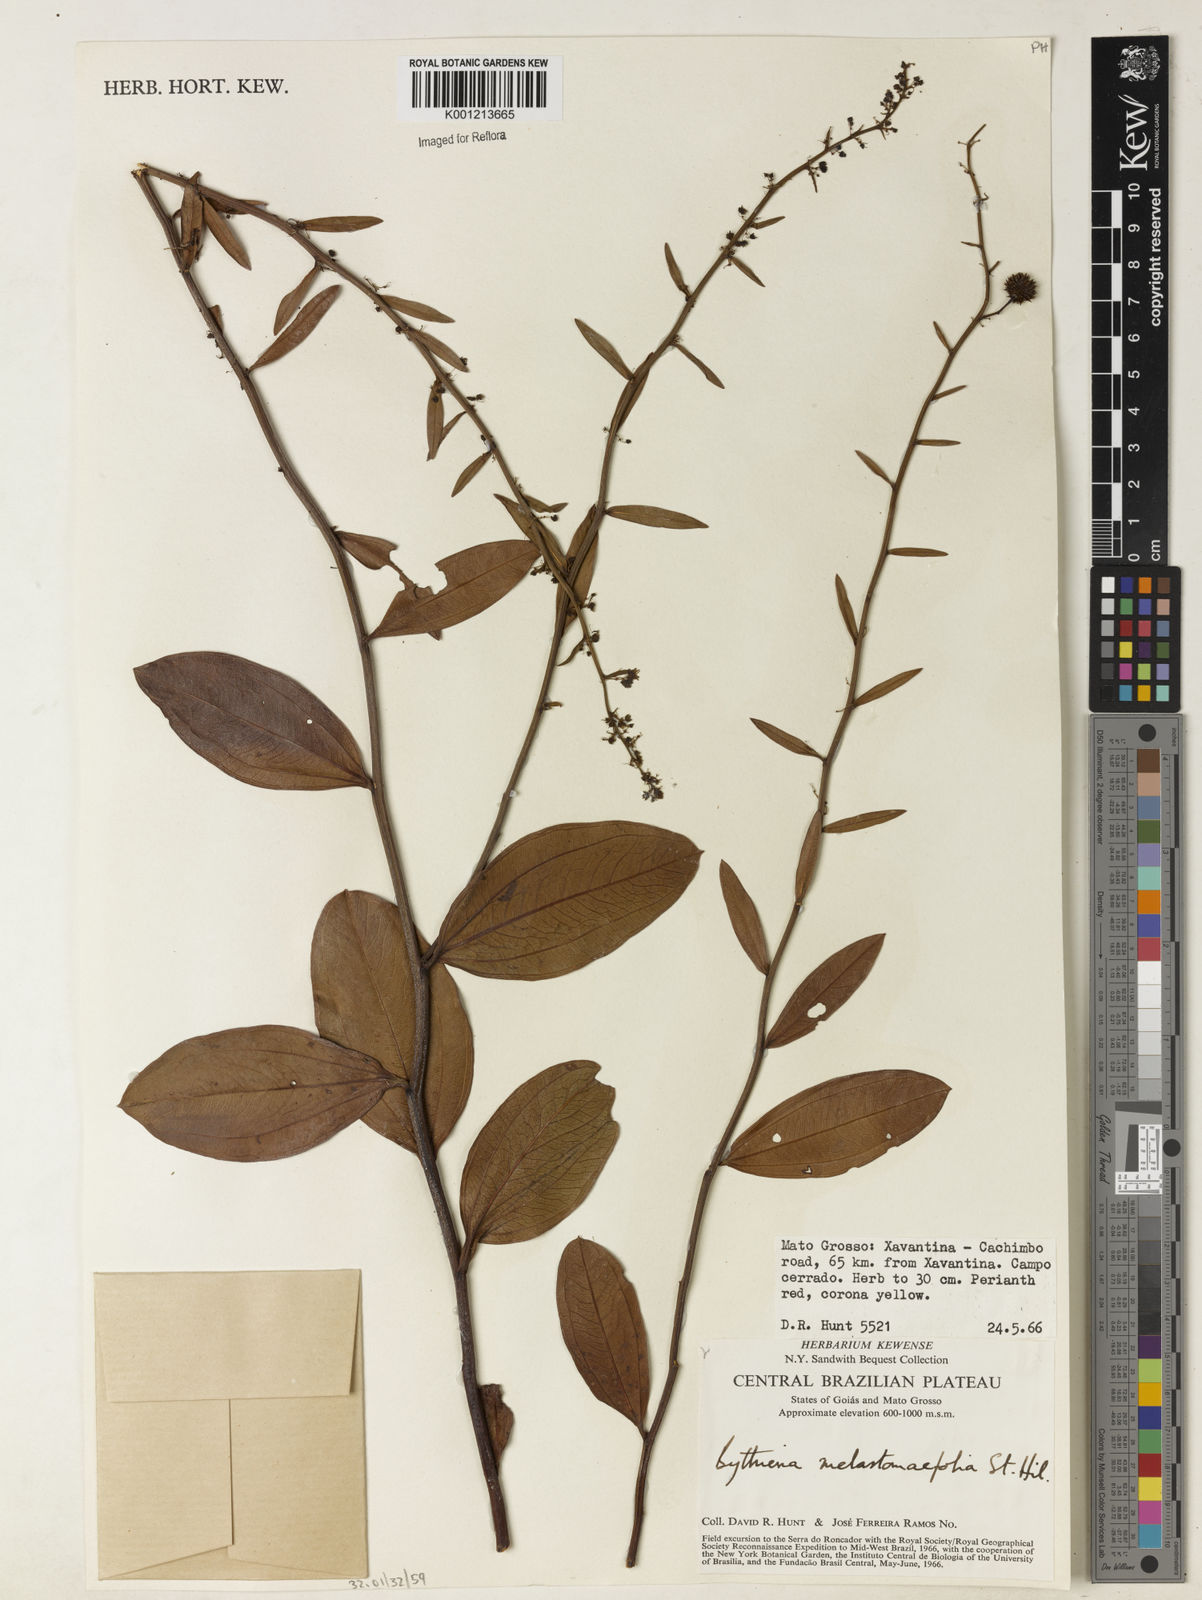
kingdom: Plantae
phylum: Tracheophyta
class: Magnoliopsida
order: Malvales
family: Malvaceae
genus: Byttneria
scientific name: Byttneria melastomifolia
